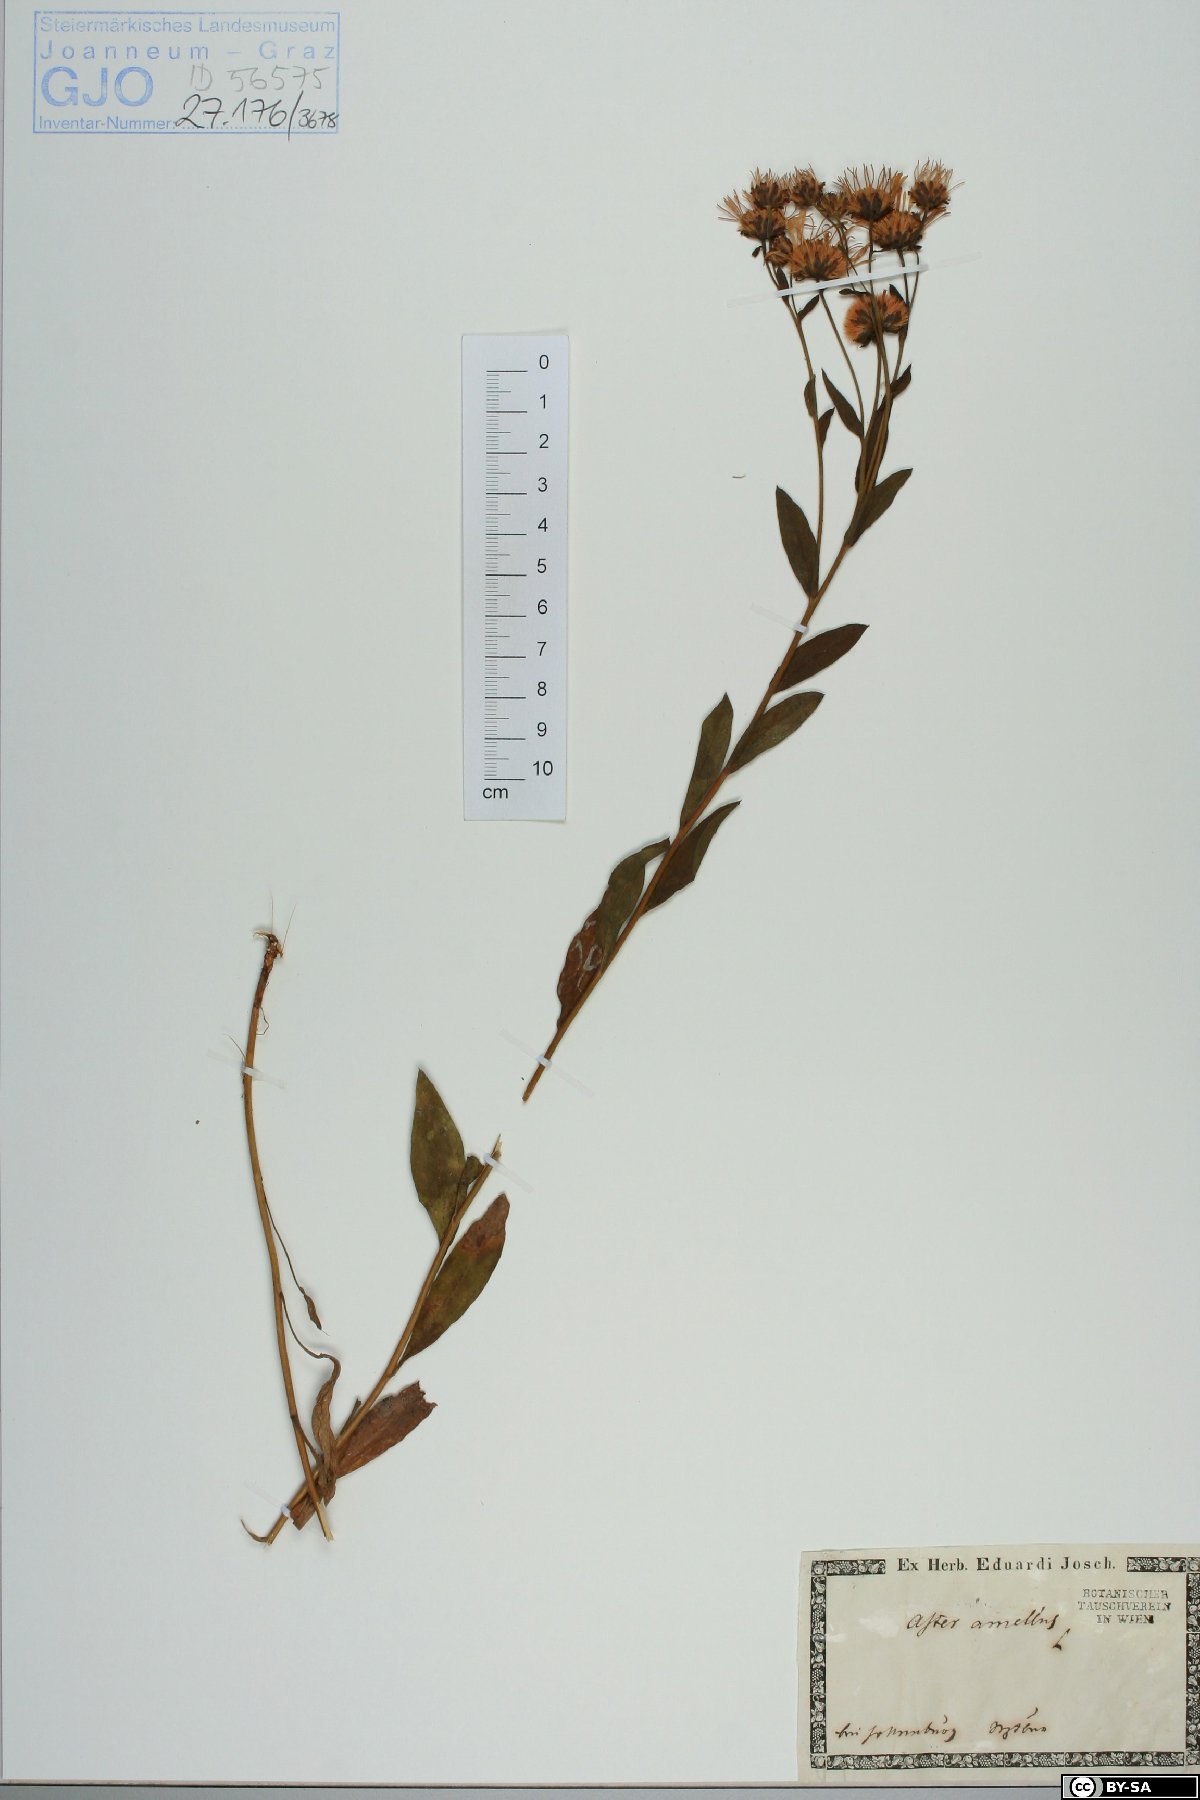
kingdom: Plantae
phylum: Tracheophyta
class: Magnoliopsida
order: Asterales
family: Asteraceae
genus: Aster
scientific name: Aster amellus
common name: European michaelmas daisy
